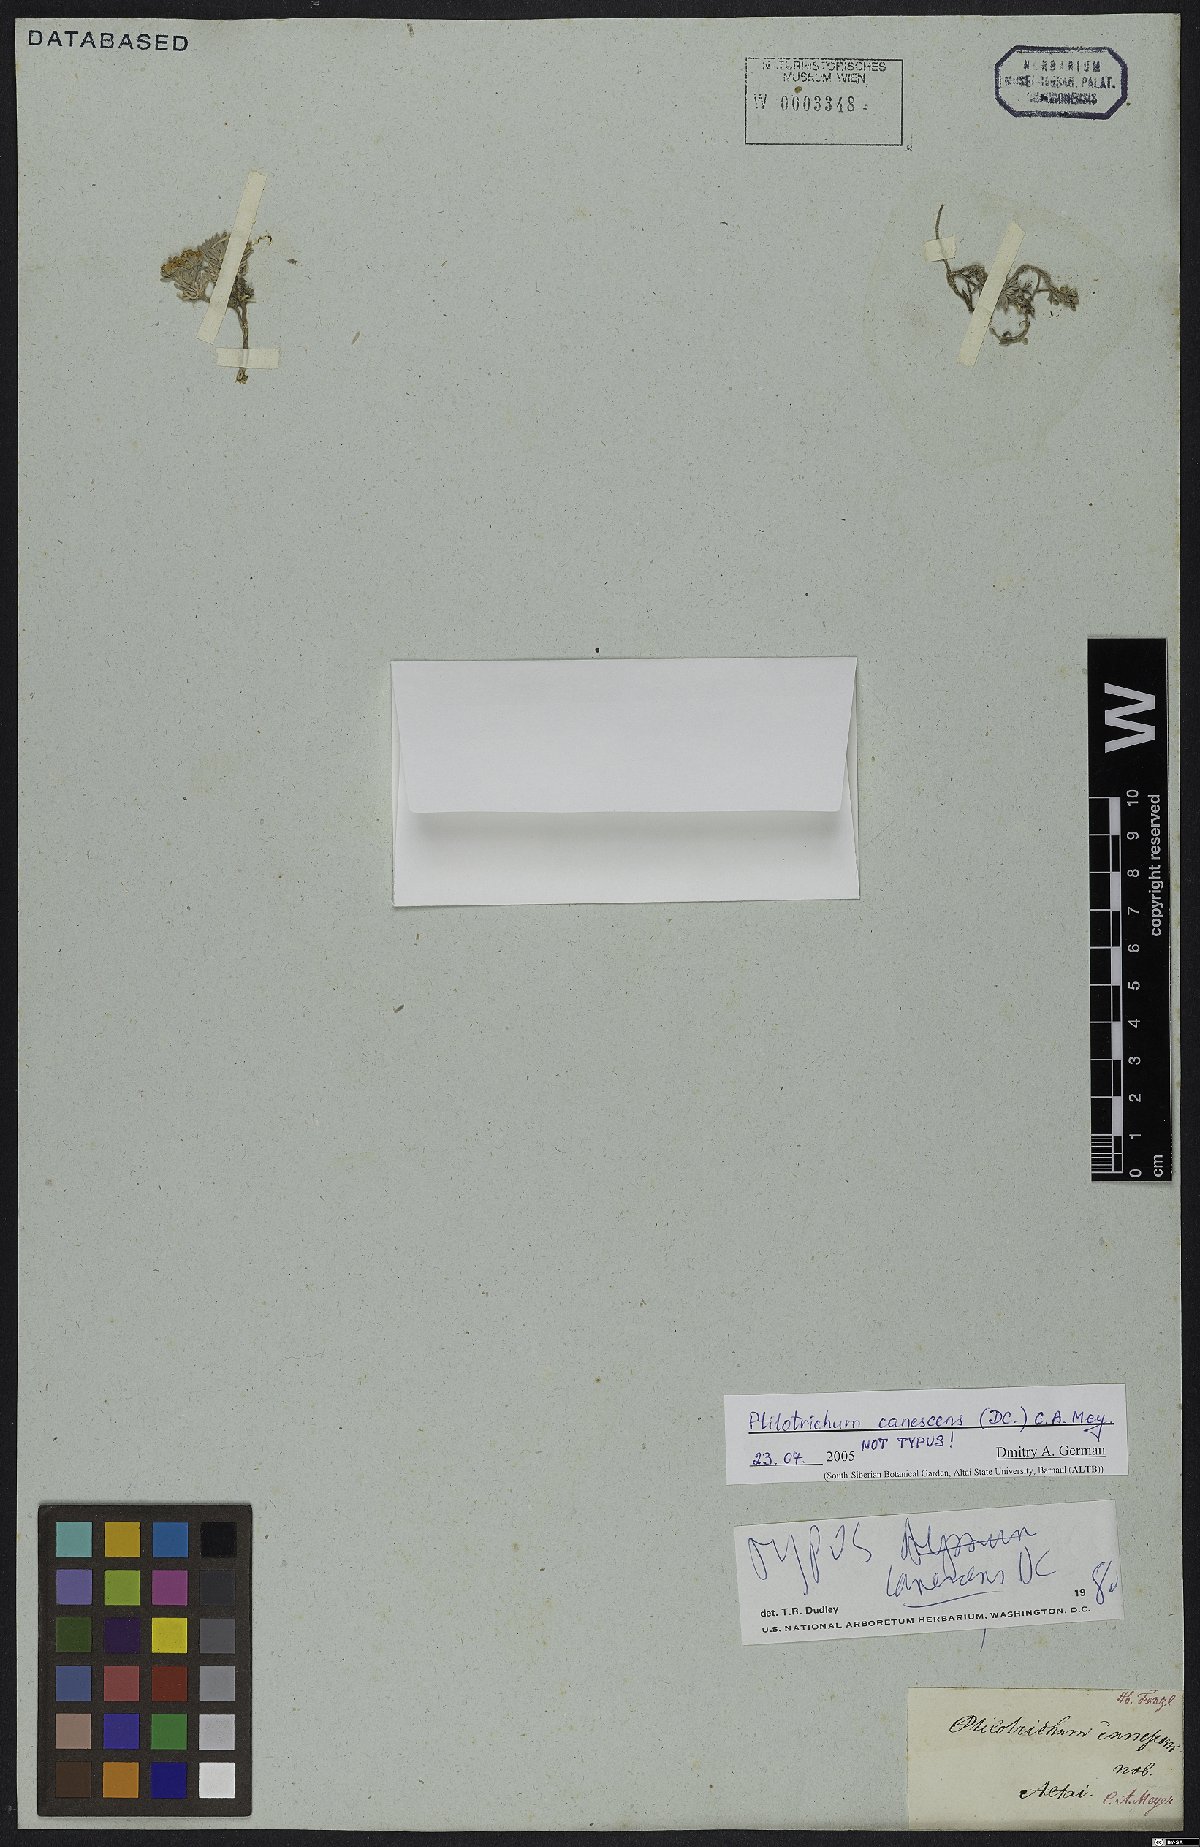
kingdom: Plantae
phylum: Tracheophyta
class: Magnoliopsida
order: Brassicales
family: Brassicaceae
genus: Stevenia
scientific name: Stevenia canescens
